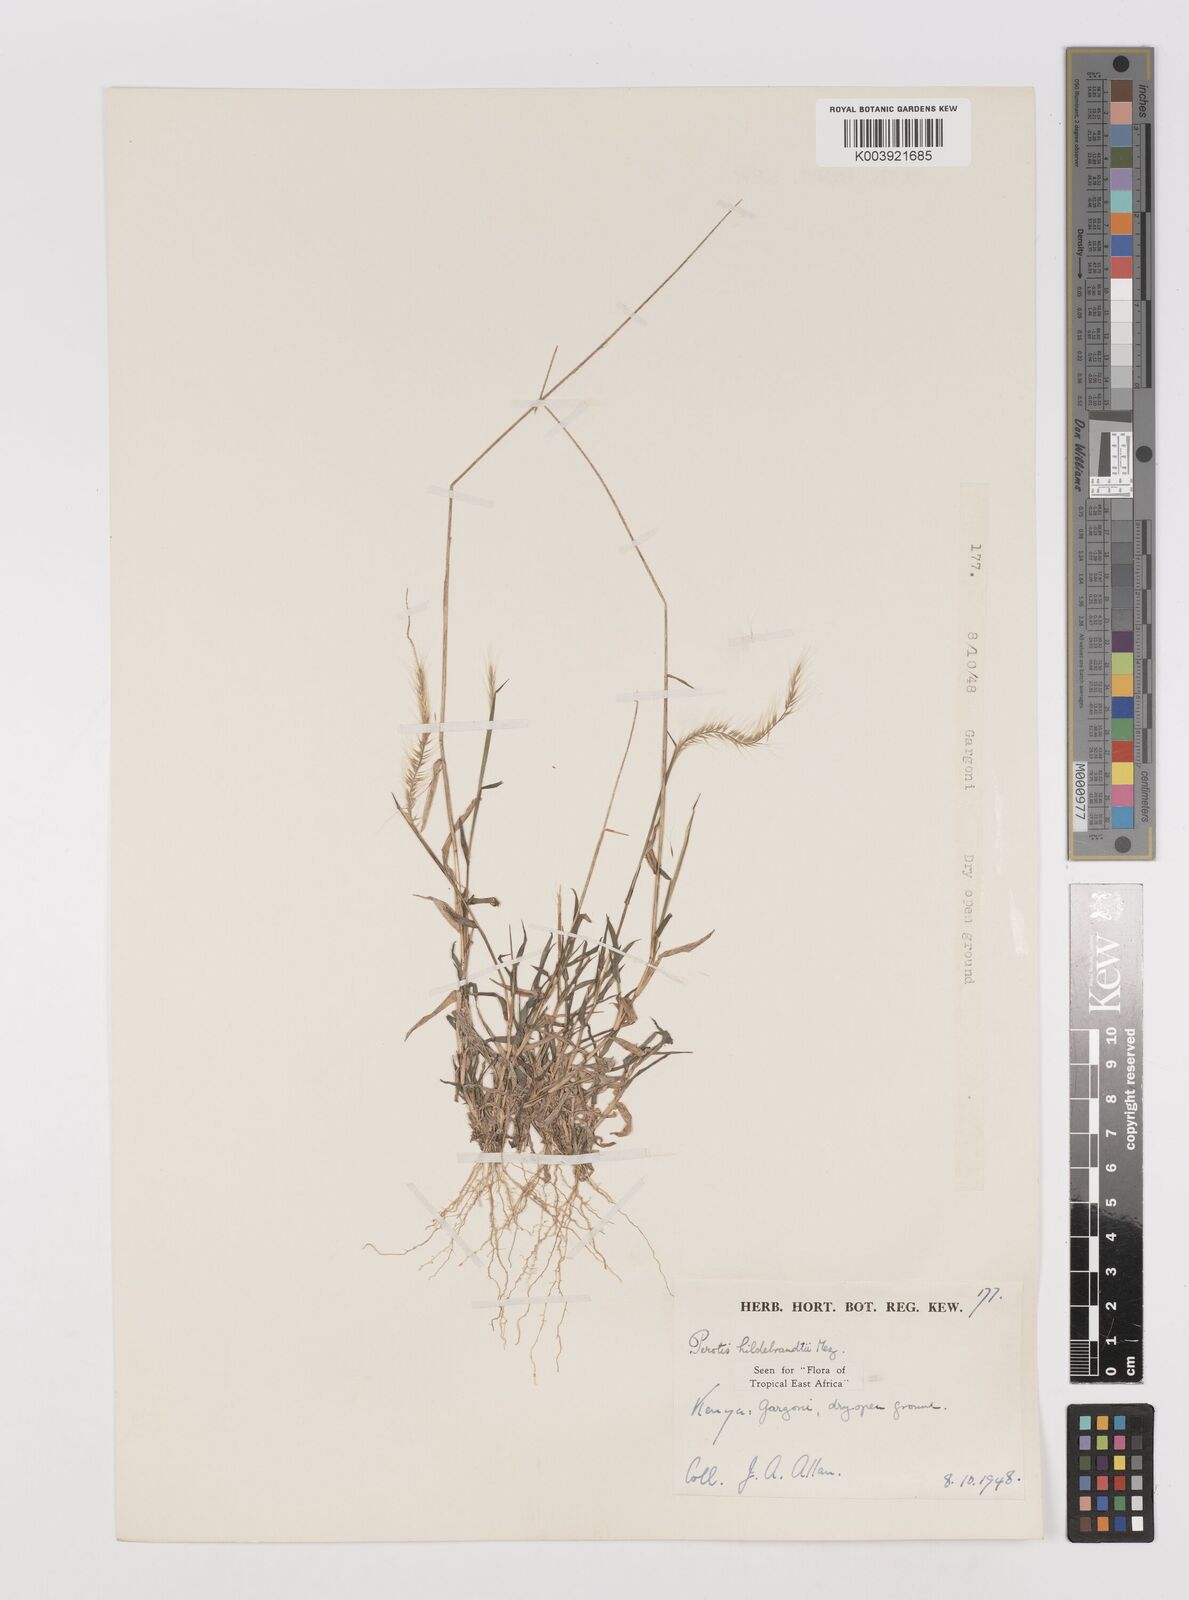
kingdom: Plantae
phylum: Tracheophyta
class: Liliopsida
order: Poales
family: Poaceae
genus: Perotis
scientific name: Perotis hildebrandtii
